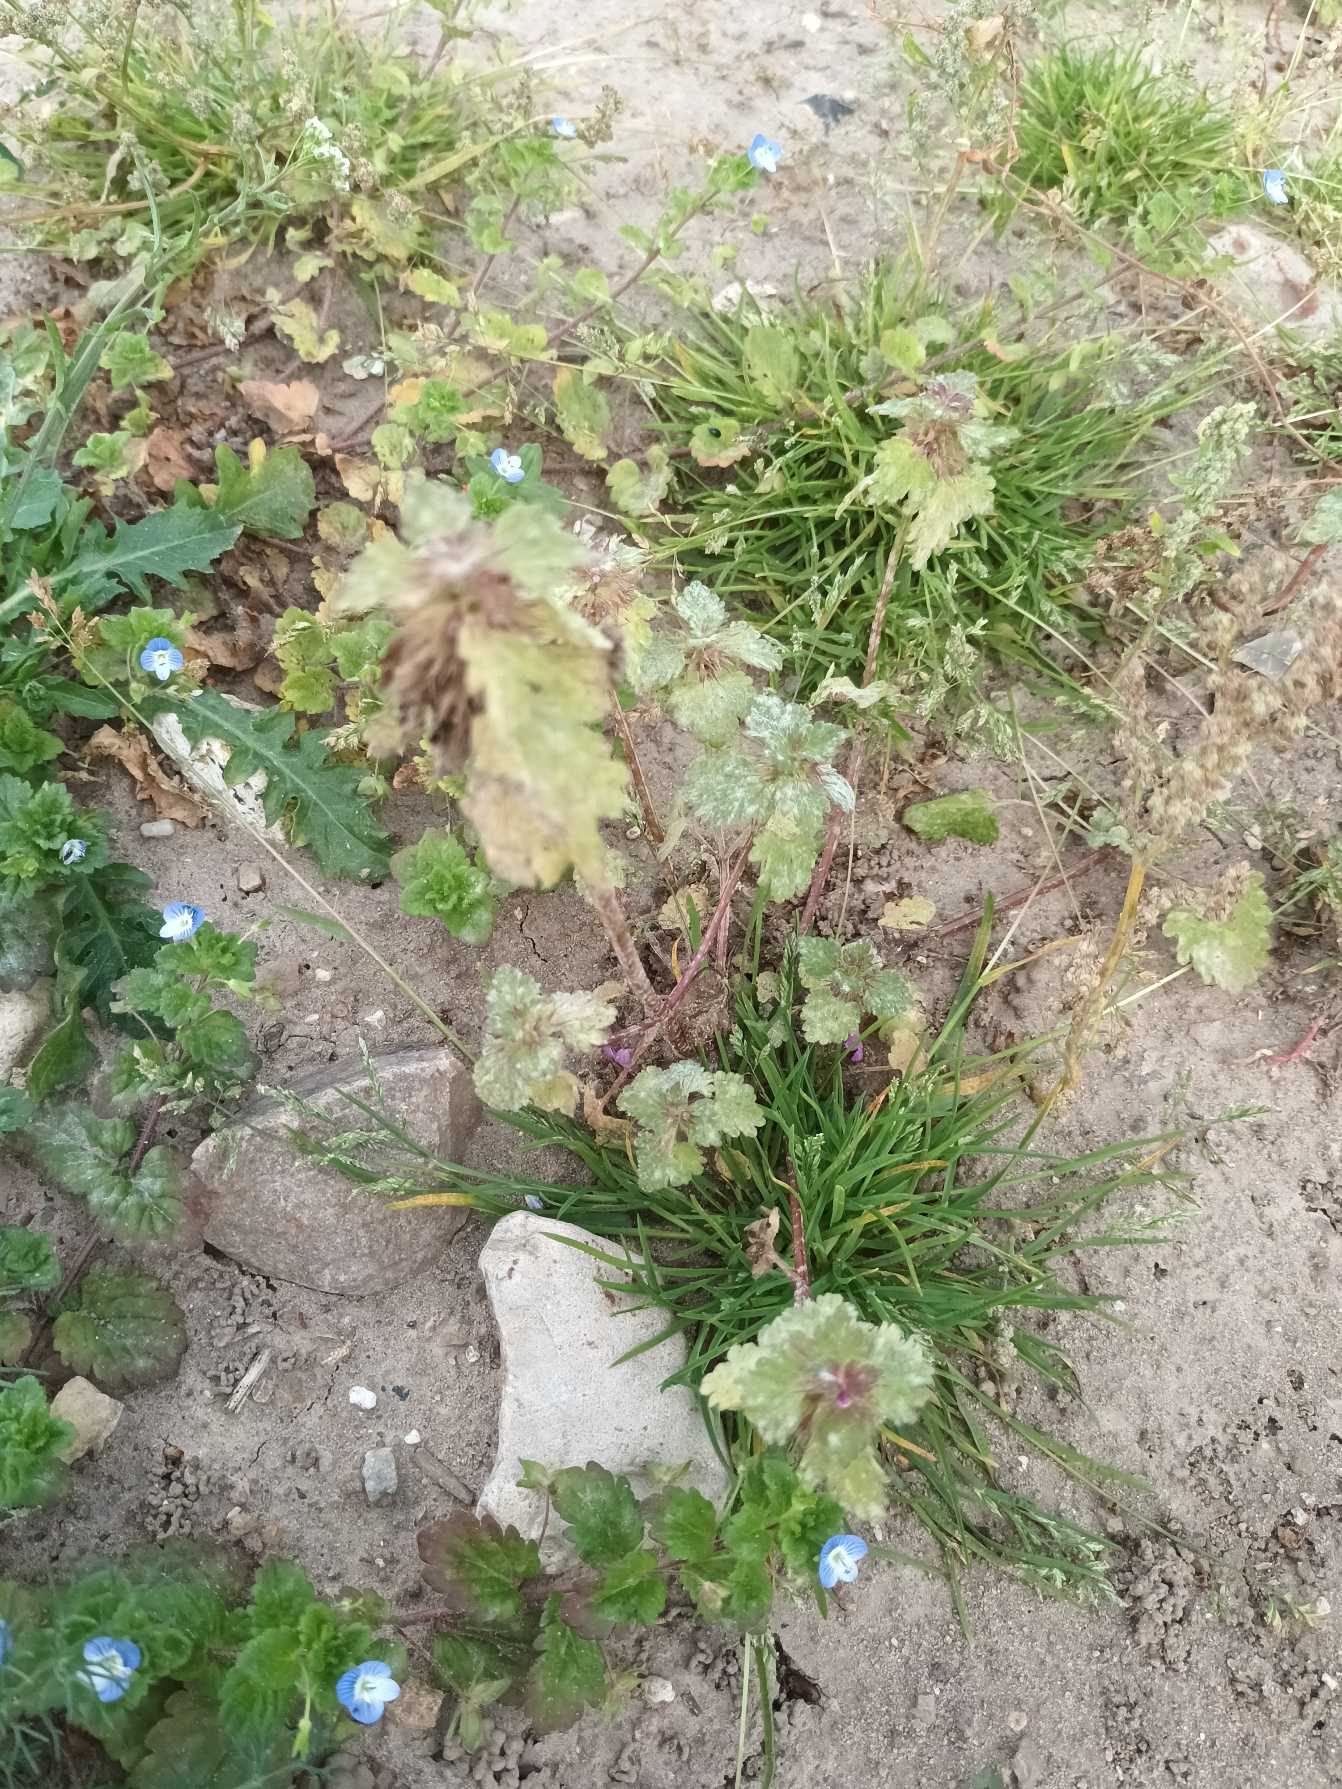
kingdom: Plantae
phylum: Tracheophyta
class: Magnoliopsida
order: Lamiales
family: Lamiaceae
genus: Lamium
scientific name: Lamium hybridum
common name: Fliget tvetand
